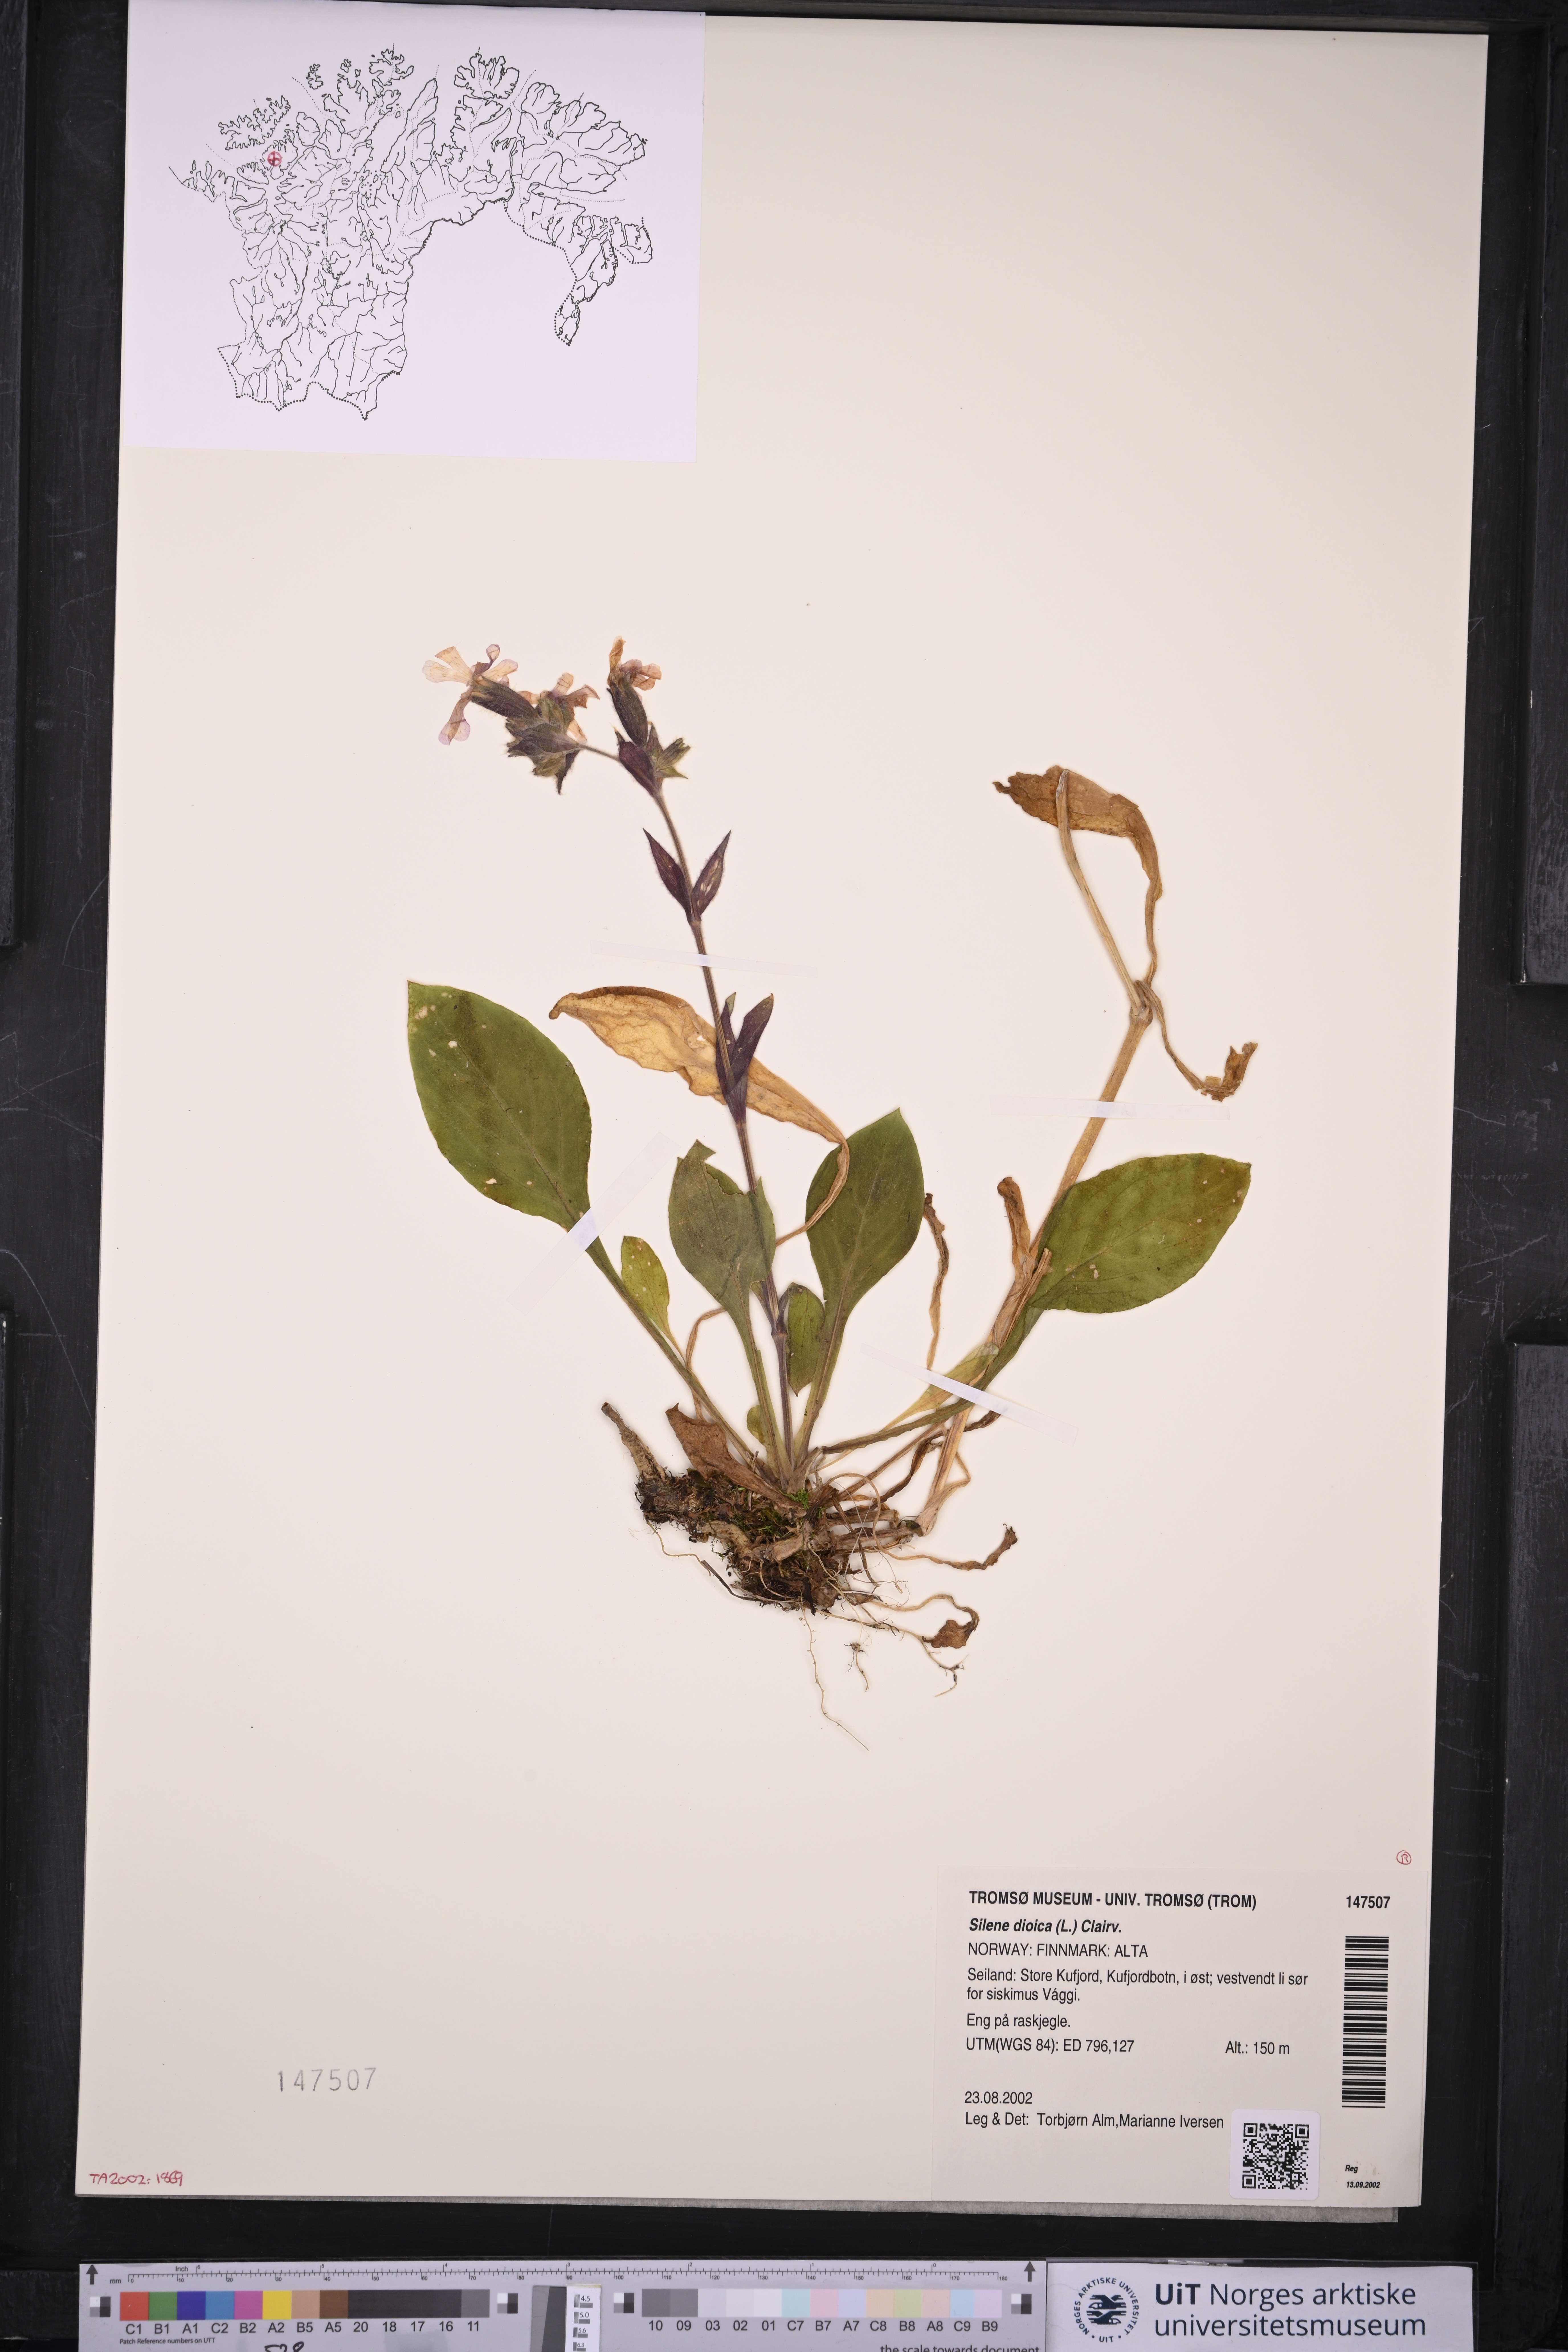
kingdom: Plantae
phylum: Tracheophyta
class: Magnoliopsida
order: Caryophyllales
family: Caryophyllaceae
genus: Silene
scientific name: Silene dioica
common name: Red campion
